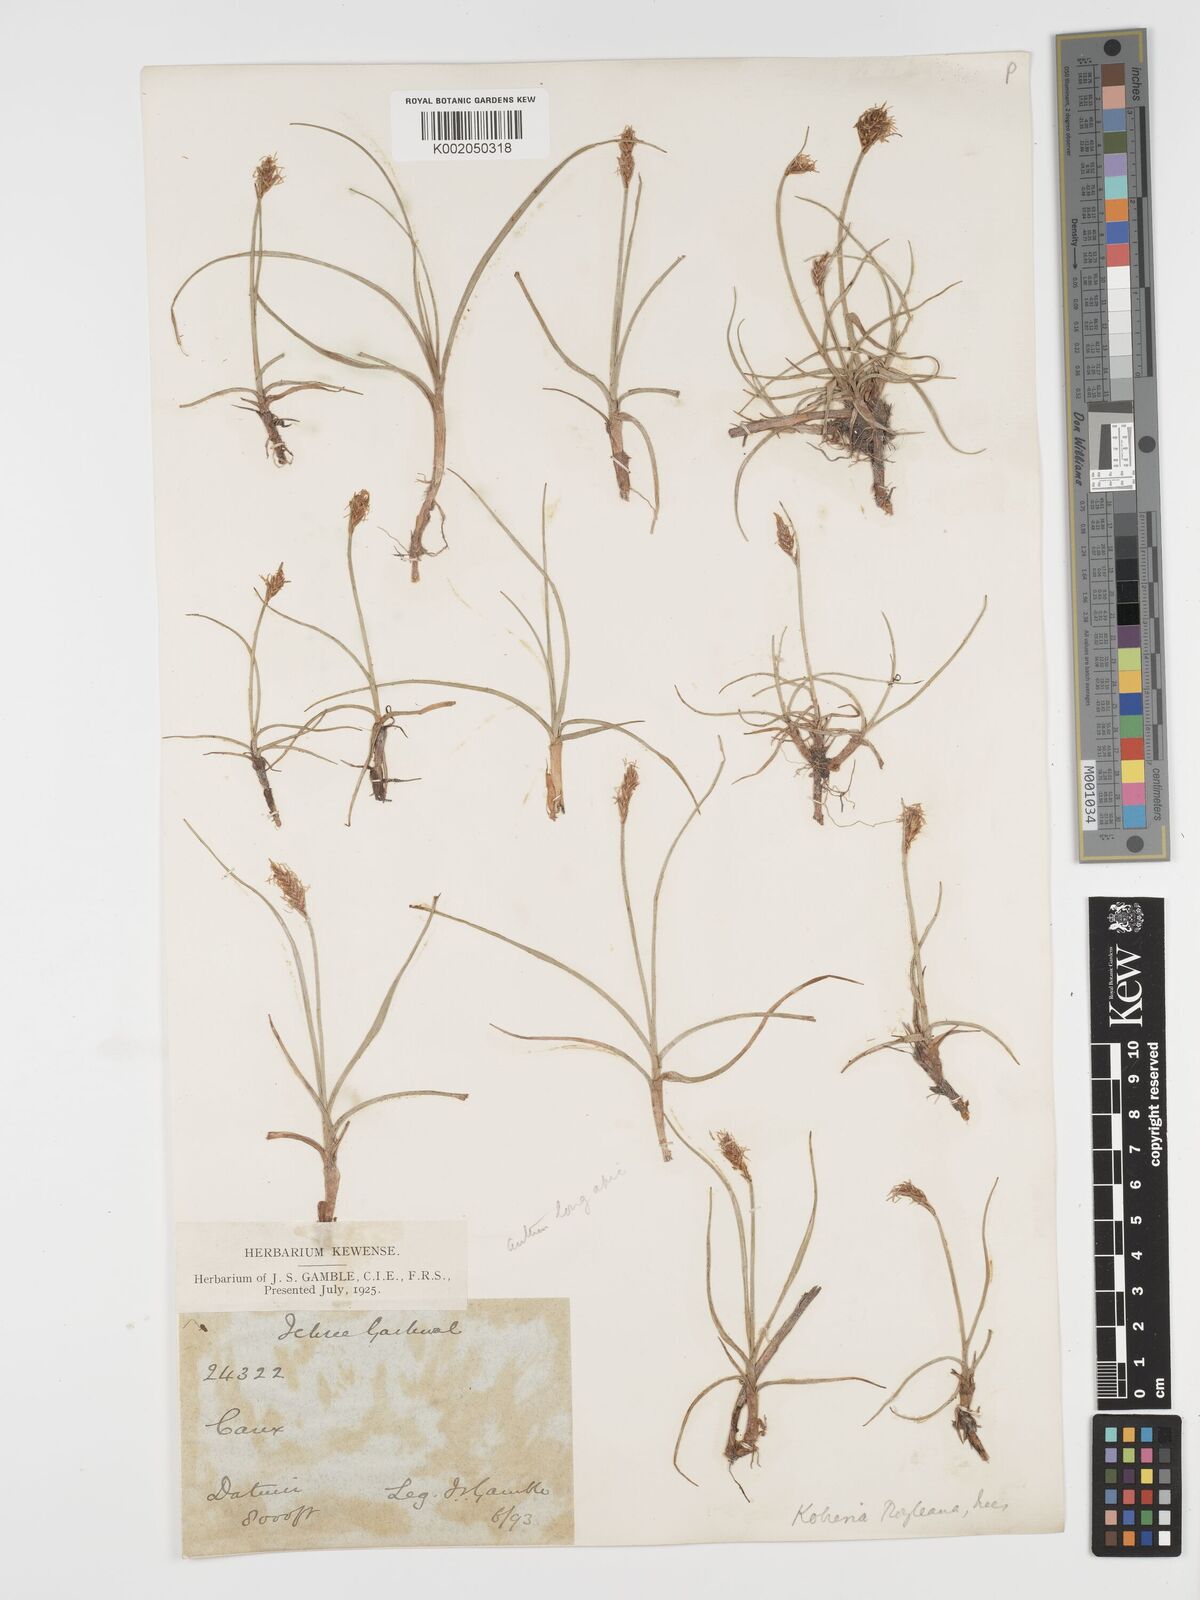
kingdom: Plantae
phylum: Tracheophyta
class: Liliopsida
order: Poales
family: Cyperaceae
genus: Blysmus
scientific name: Blysmus
